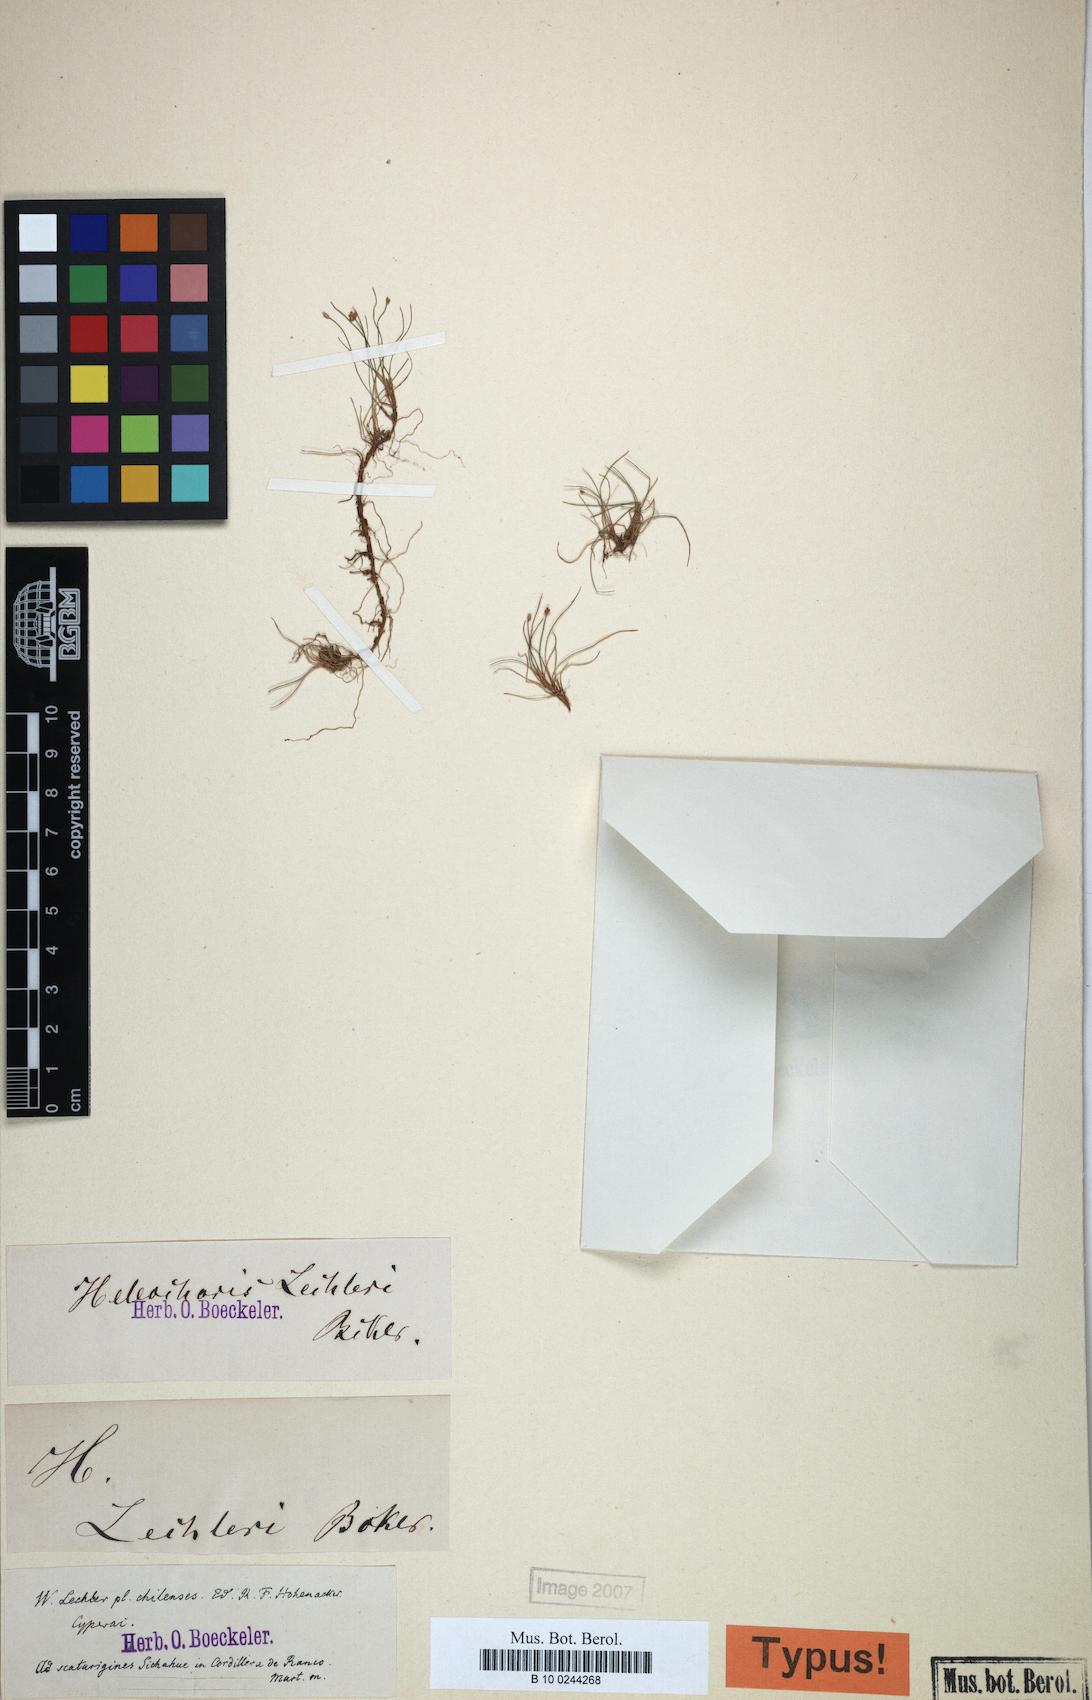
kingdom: Plantae
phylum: Tracheophyta
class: Liliopsida
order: Poales
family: Cyperaceae
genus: Eleocharis
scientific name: Eleocharis lechleri
